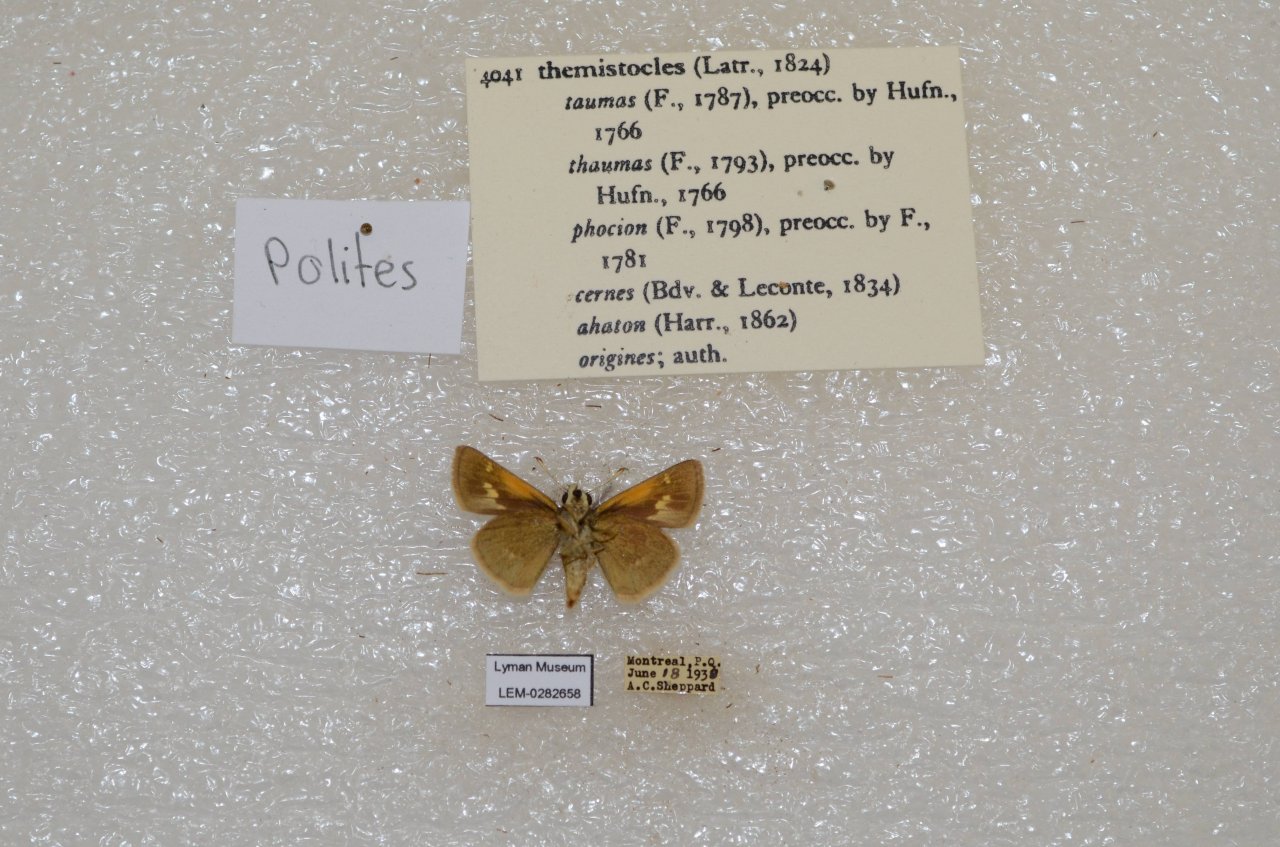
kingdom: Animalia
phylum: Arthropoda
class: Insecta
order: Lepidoptera
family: Hesperiidae
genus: Polites
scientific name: Polites themistocles
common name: Tawny-edged Skipper
